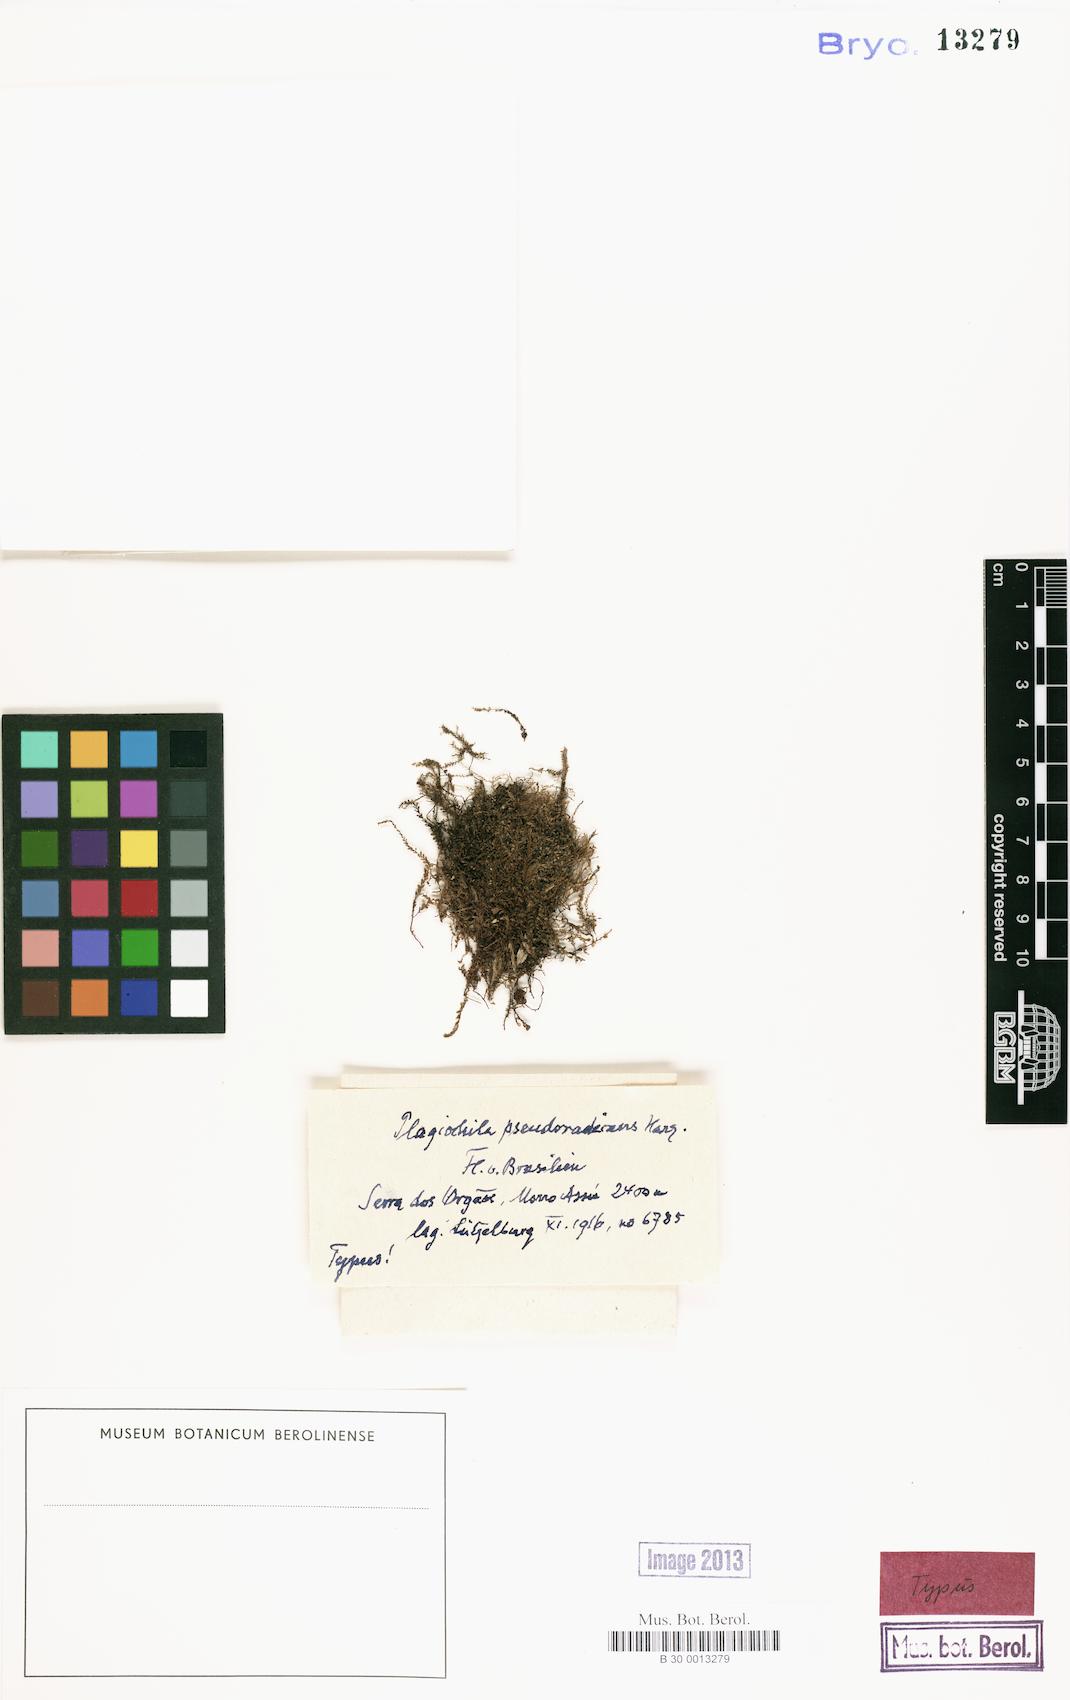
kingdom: Plantae
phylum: Marchantiophyta
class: Jungermanniopsida
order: Jungermanniales
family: Plagiochilaceae
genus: Plagiochila
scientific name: Plagiochila pseudoradicans
